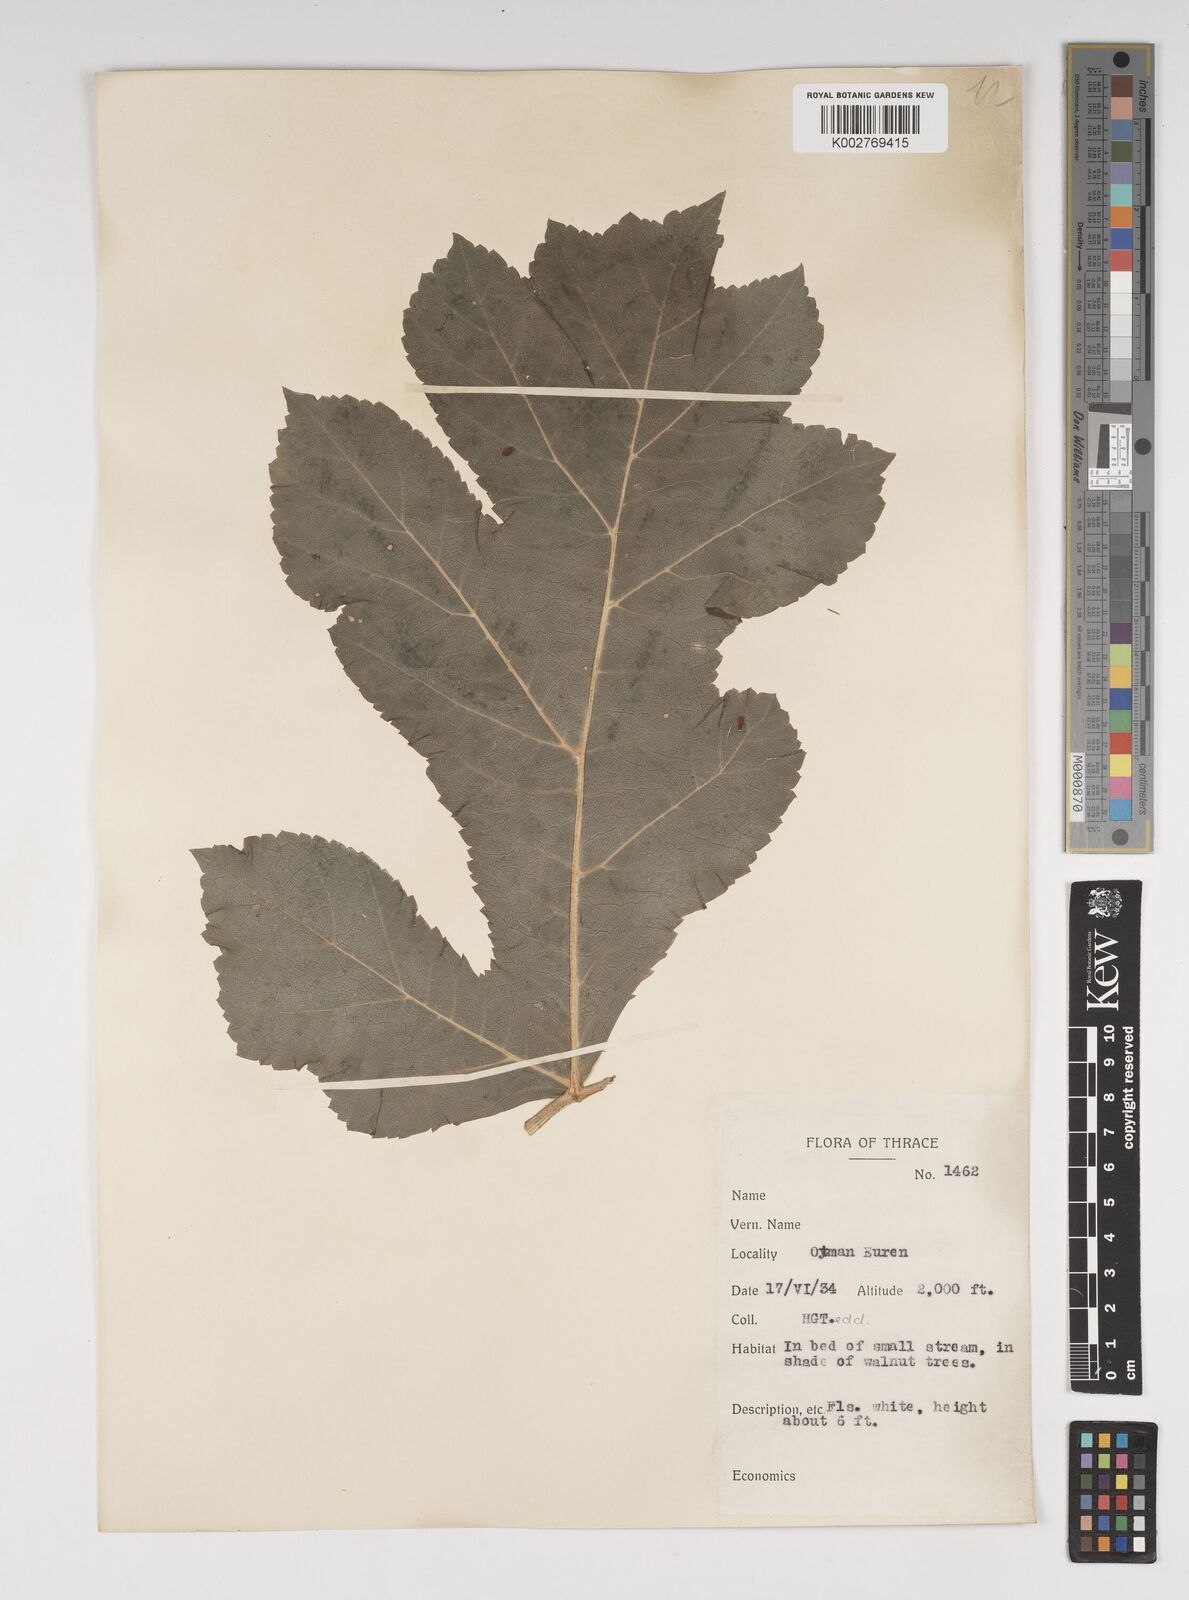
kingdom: Plantae
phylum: Tracheophyta
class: Magnoliopsida
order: Apiales
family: Apiaceae
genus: Heracleum
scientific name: Heracleum sphondylium
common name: Hogweed
